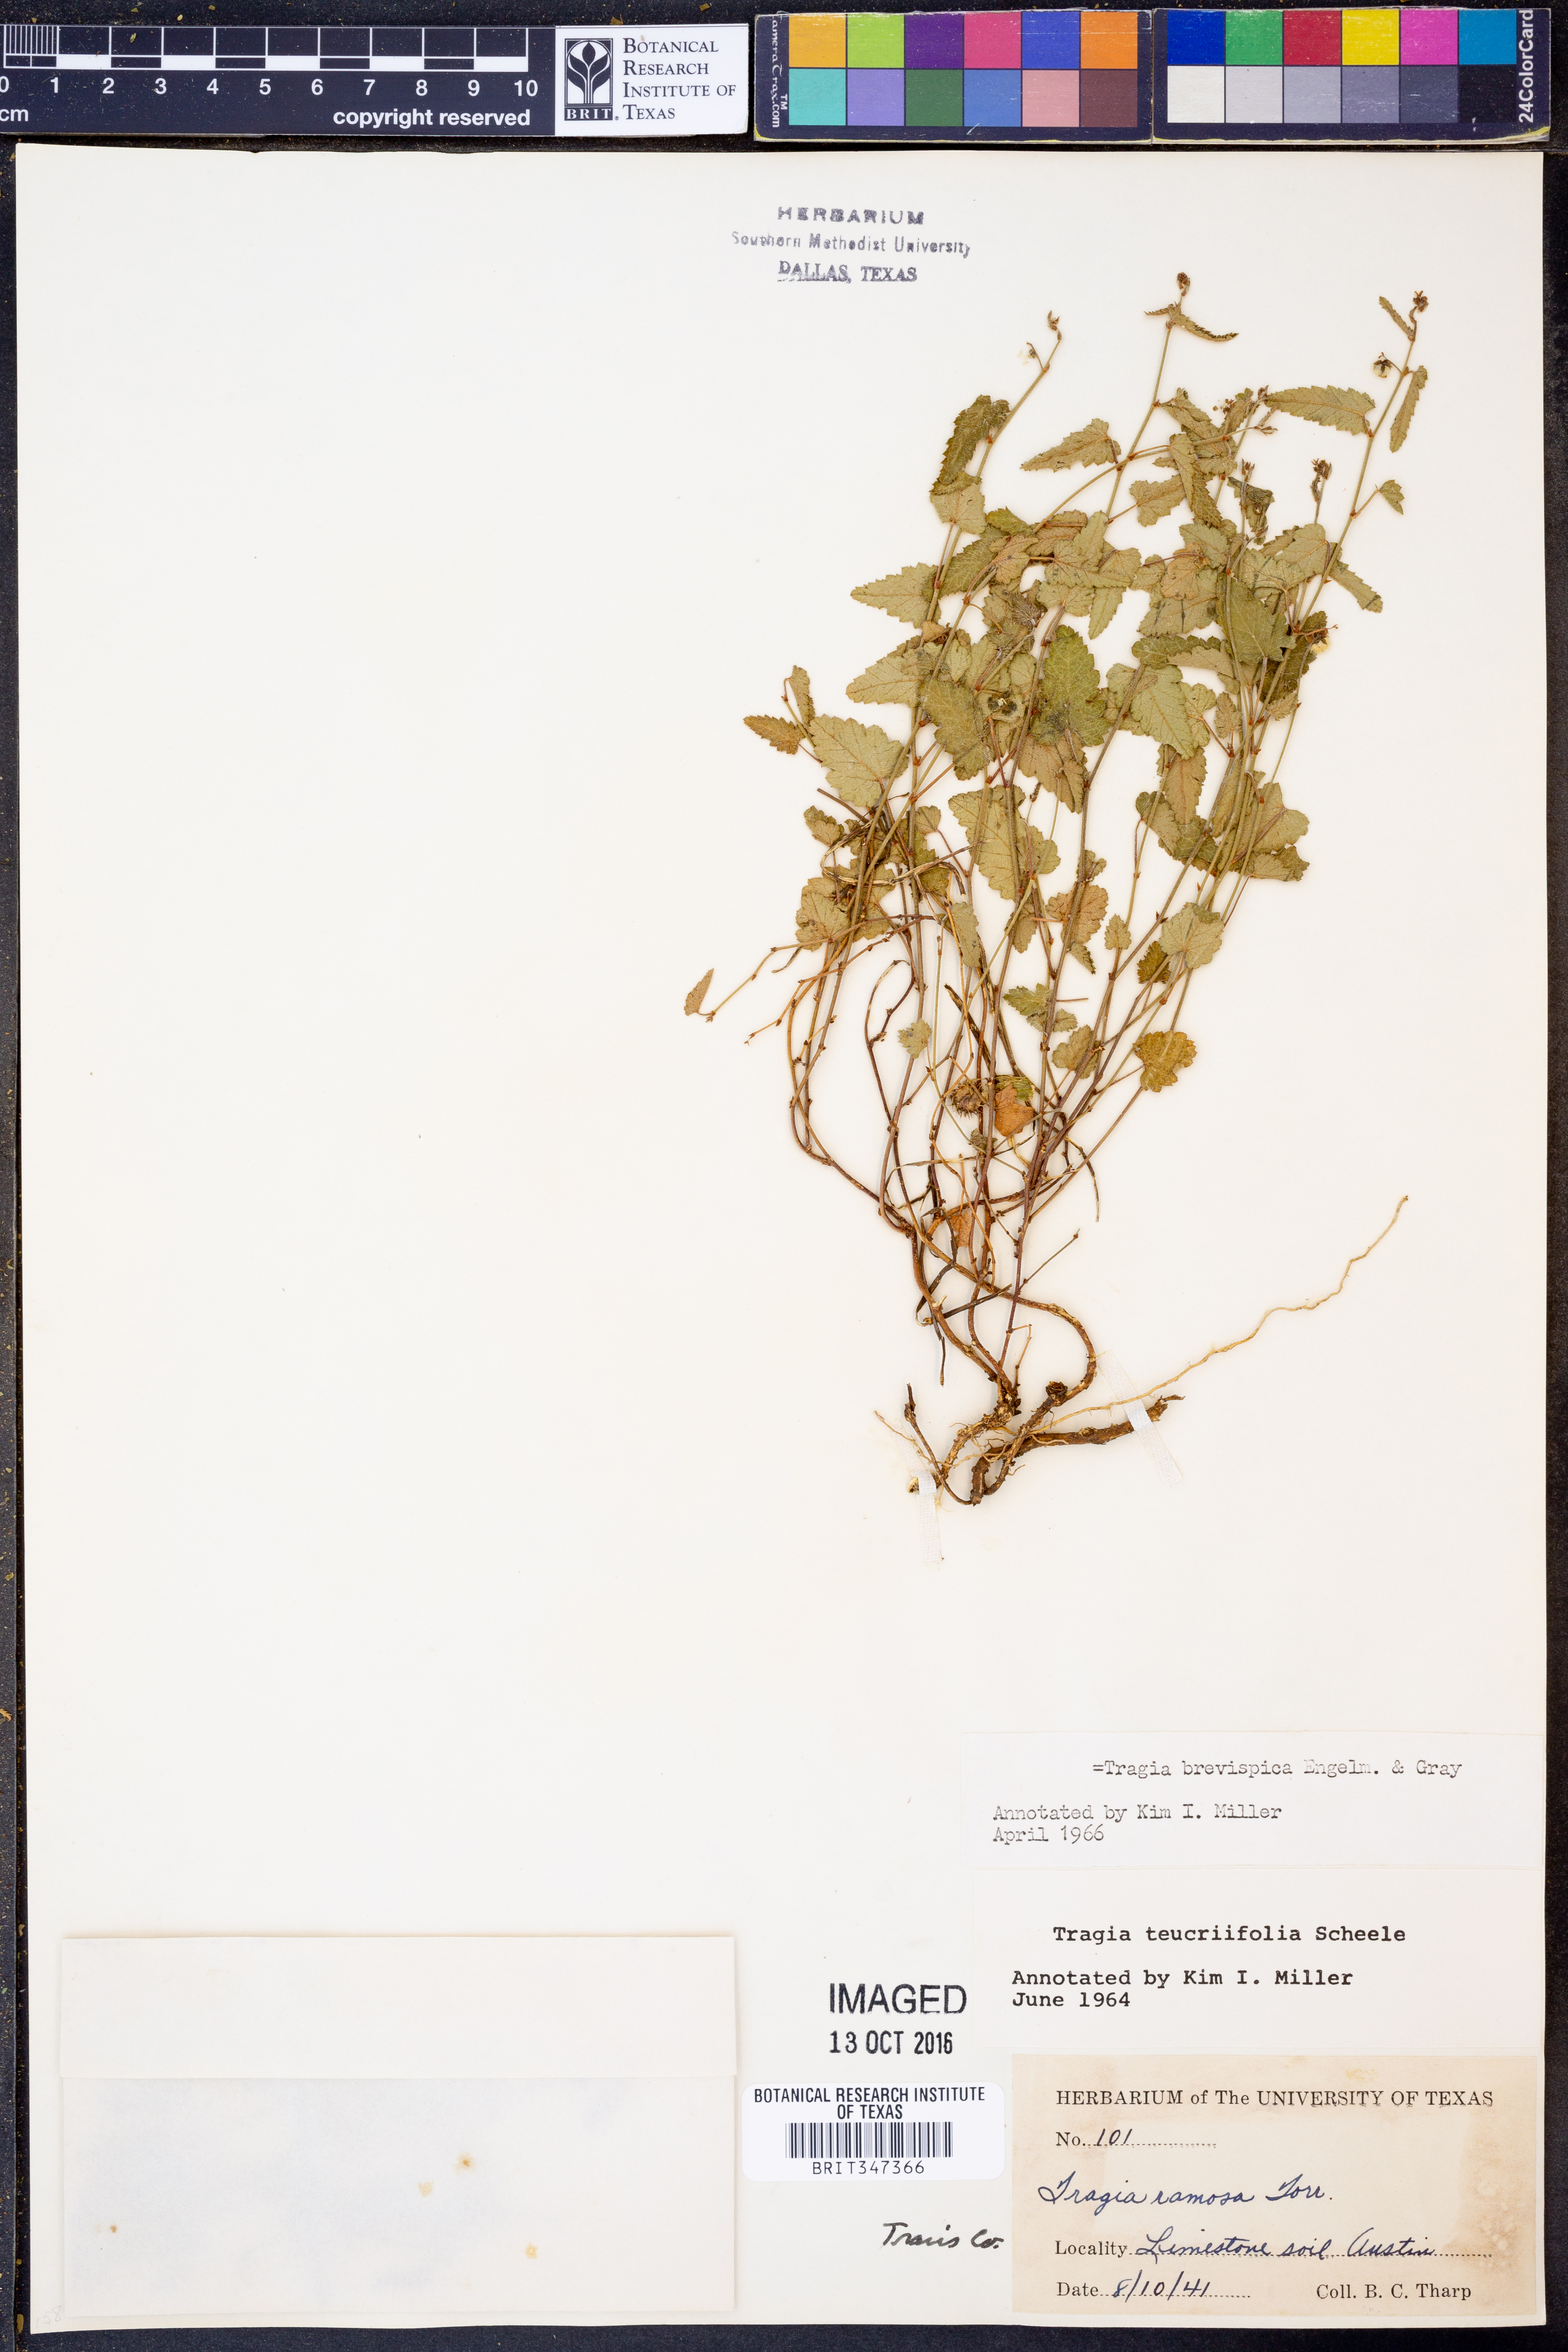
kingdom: Plantae
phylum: Tracheophyta
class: Magnoliopsida
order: Malpighiales
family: Euphorbiaceae
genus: Tragia
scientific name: Tragia brevispica
